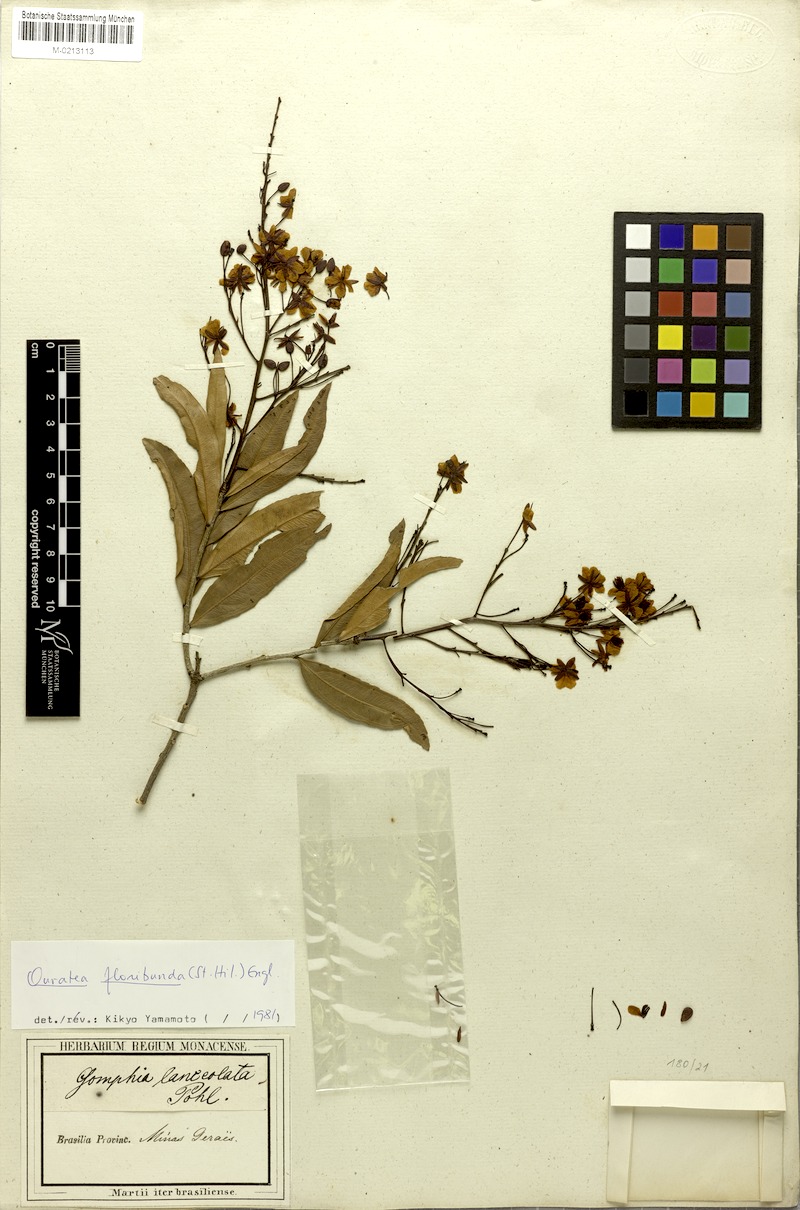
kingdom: Plantae
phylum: Tracheophyta
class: Magnoliopsida
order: Malpighiales
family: Ochnaceae
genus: Ouratea
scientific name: Ouratea floribunda
